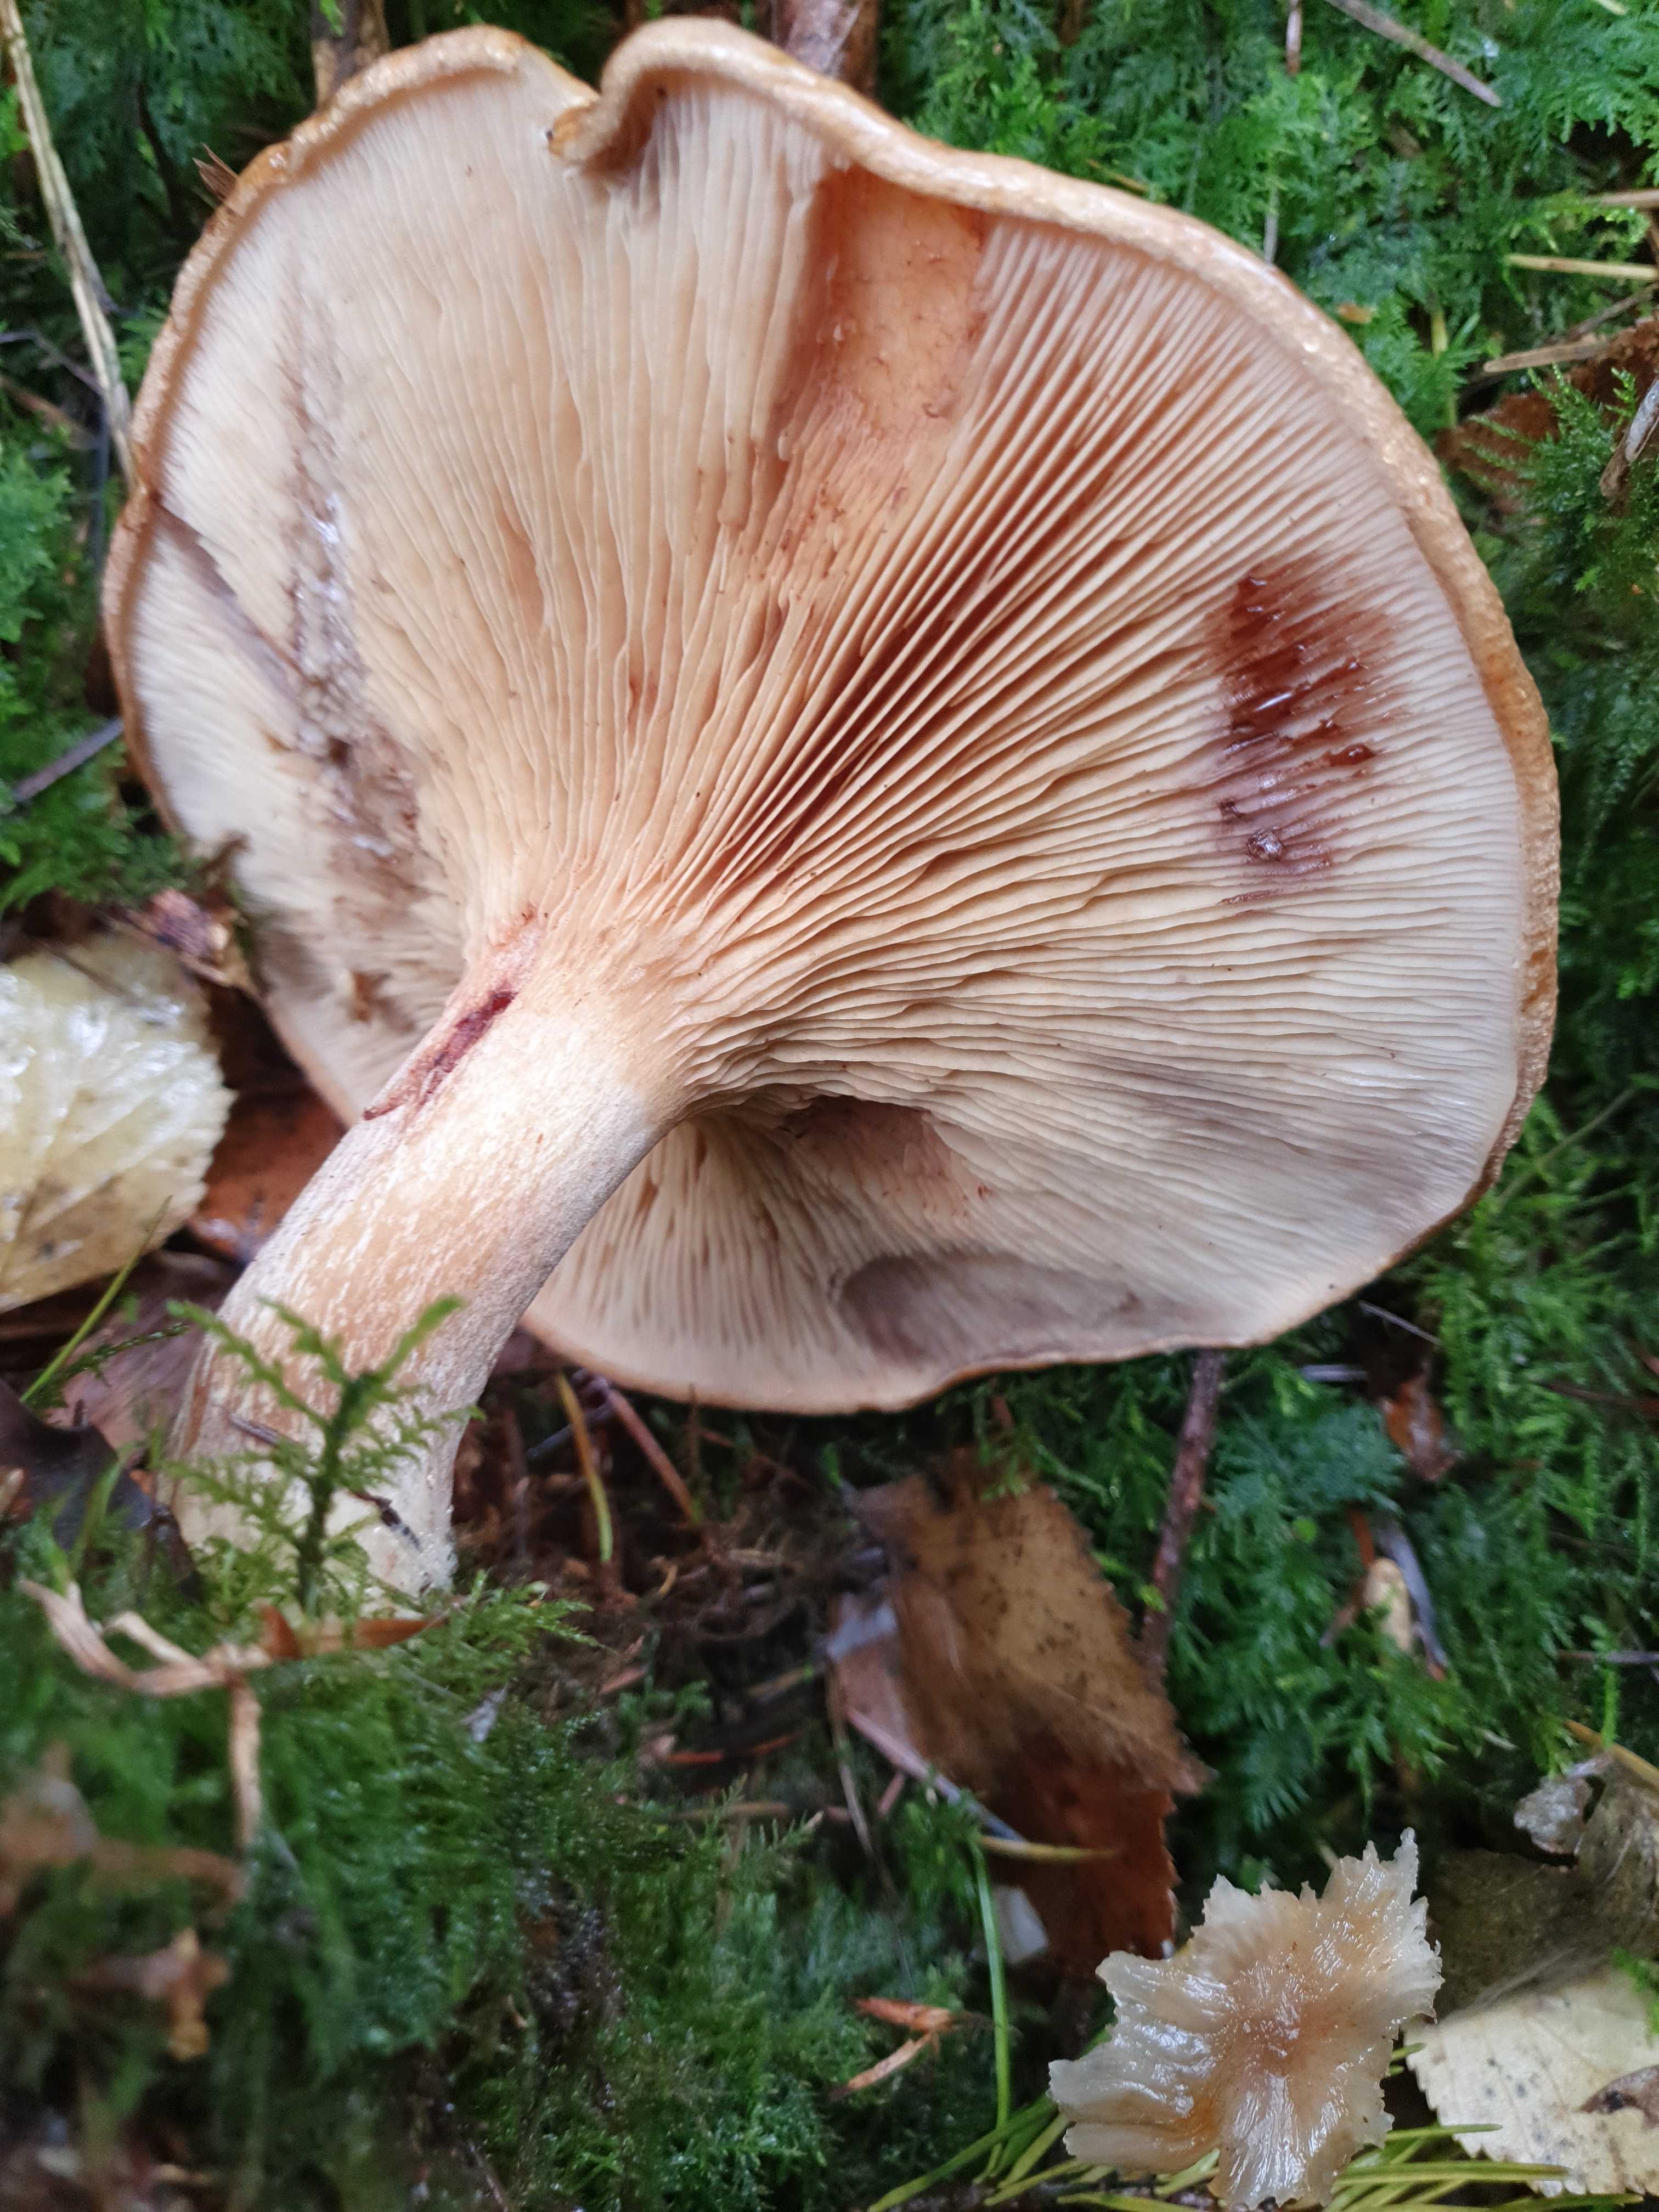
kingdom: Fungi
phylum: Basidiomycota
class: Agaricomycetes
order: Boletales
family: Paxillaceae
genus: Paxillus
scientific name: Paxillus involutus
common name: almindelig netbladhat
